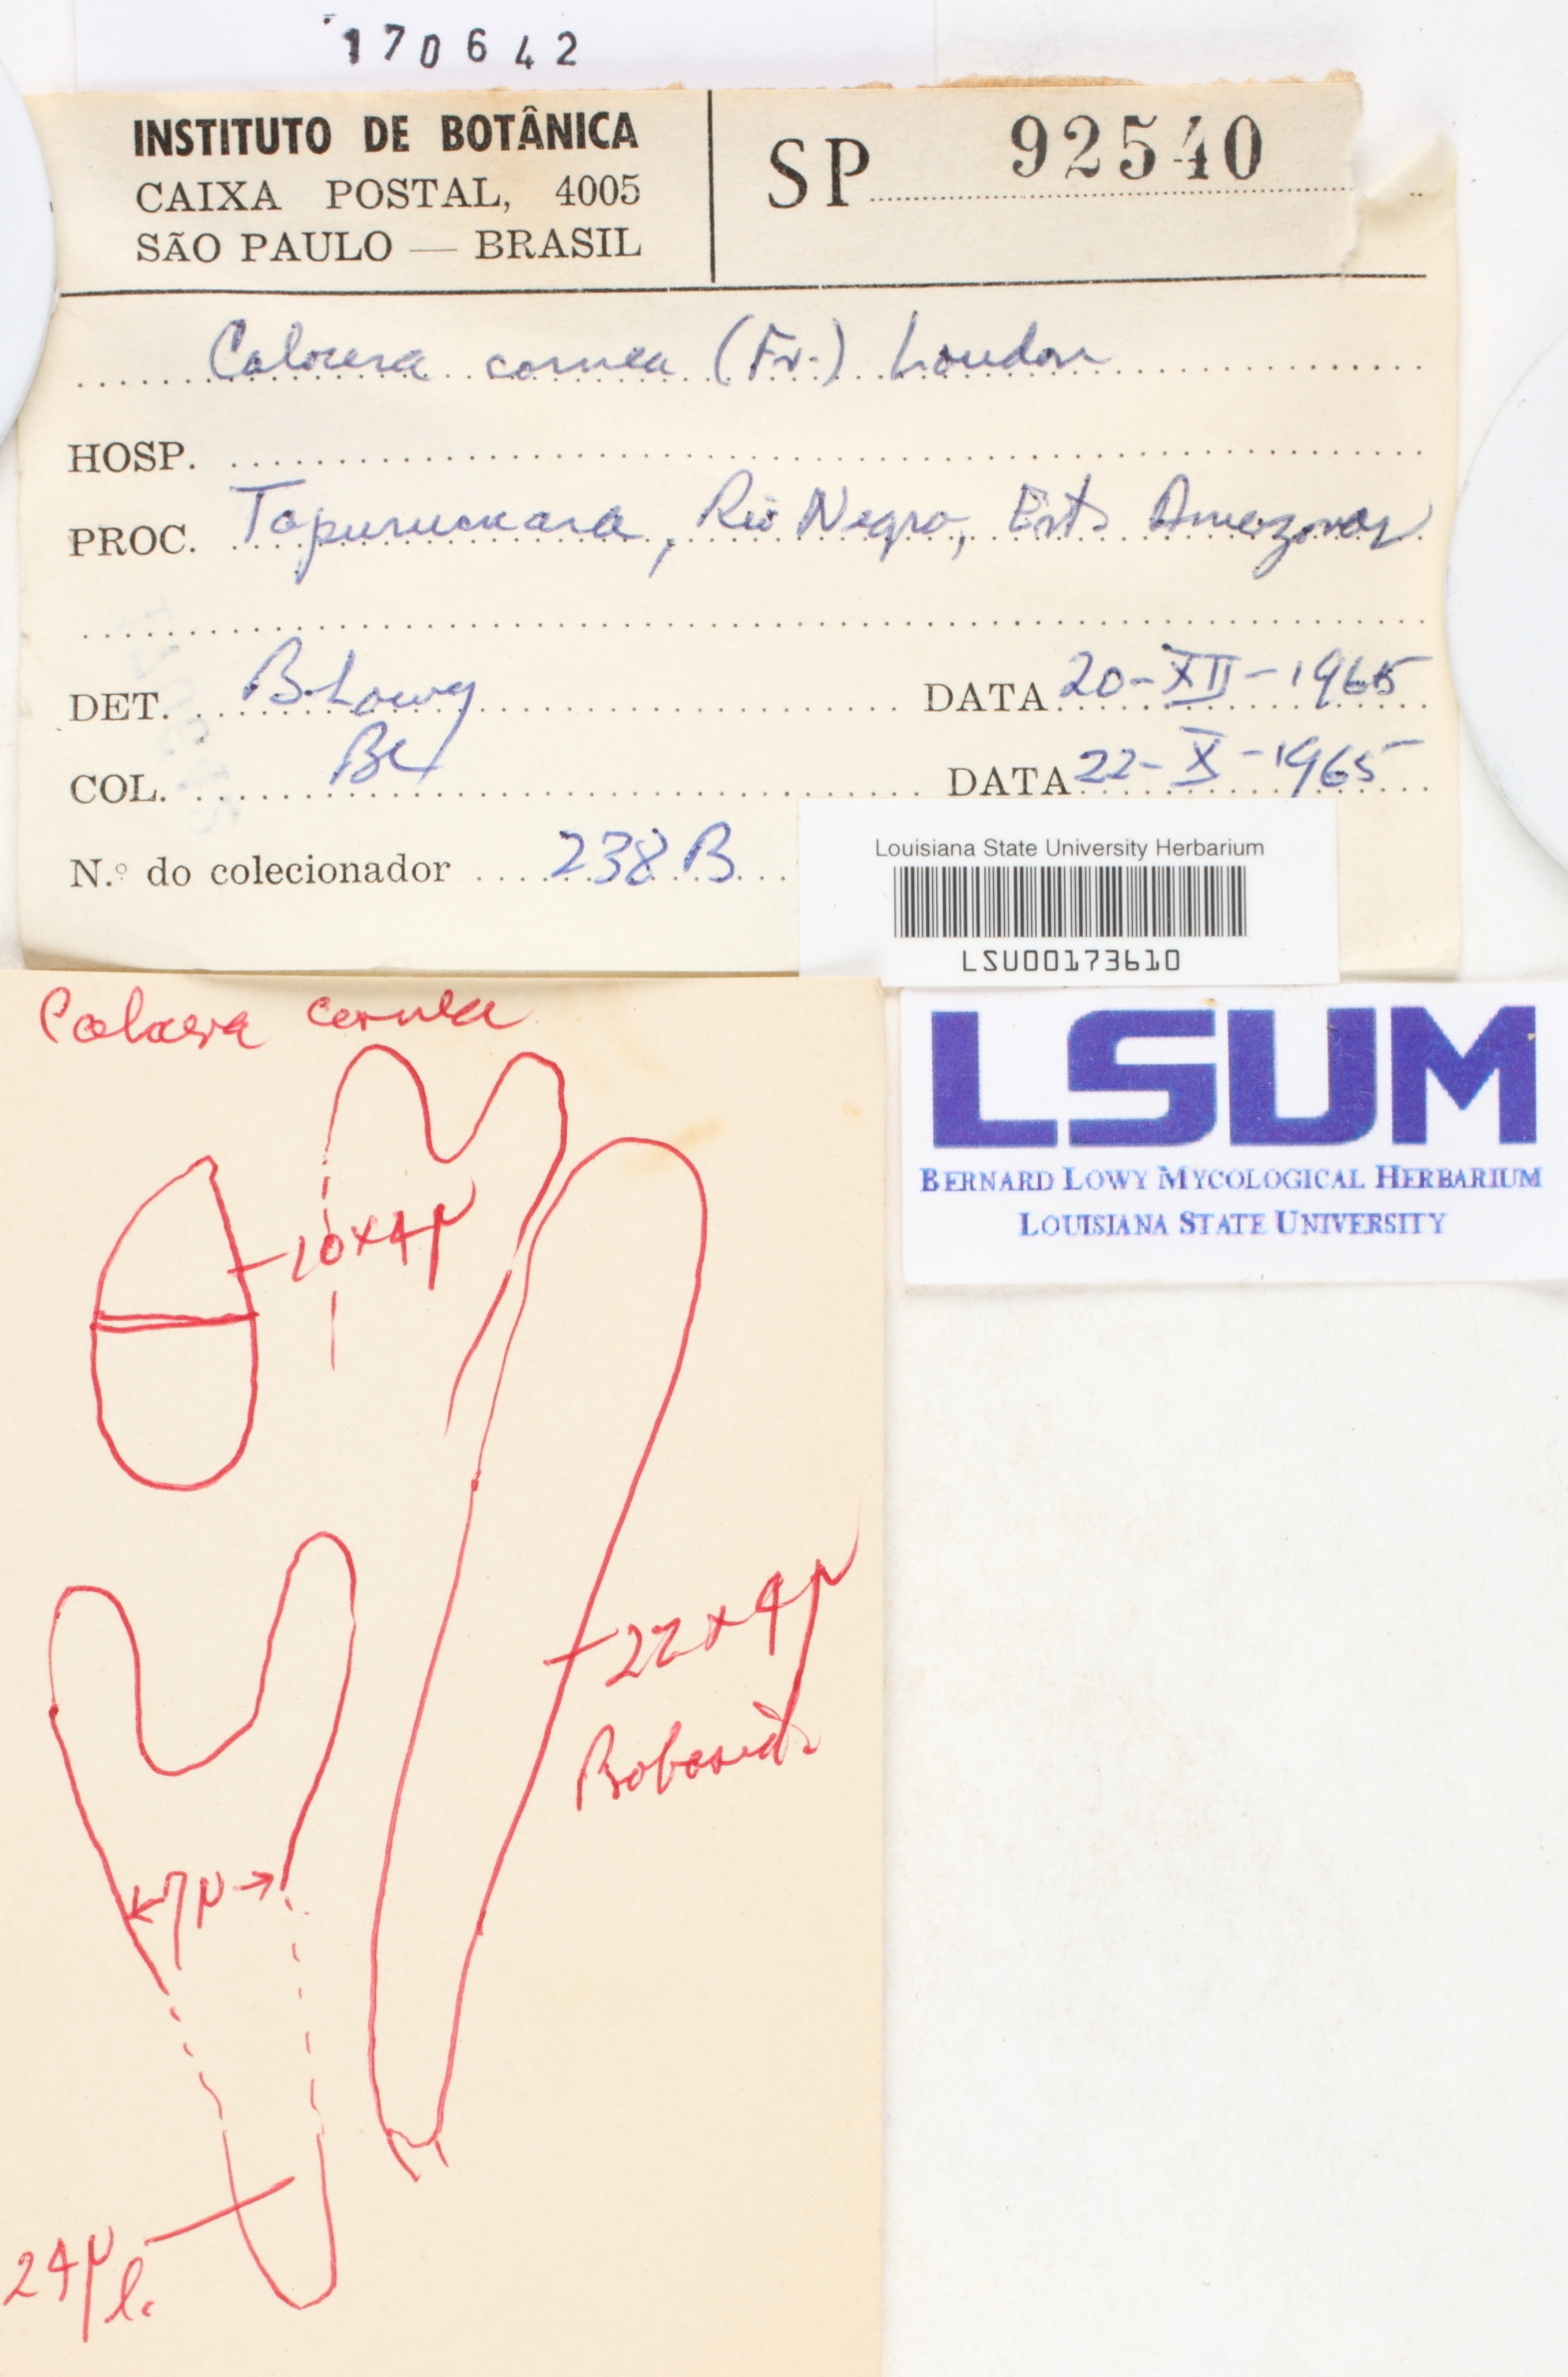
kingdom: Fungi
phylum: Basidiomycota
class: Dacrymycetes
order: Dacrymycetales
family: Dacrymycetaceae
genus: Calocera
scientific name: Calocera cornea
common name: Small stagshorn
